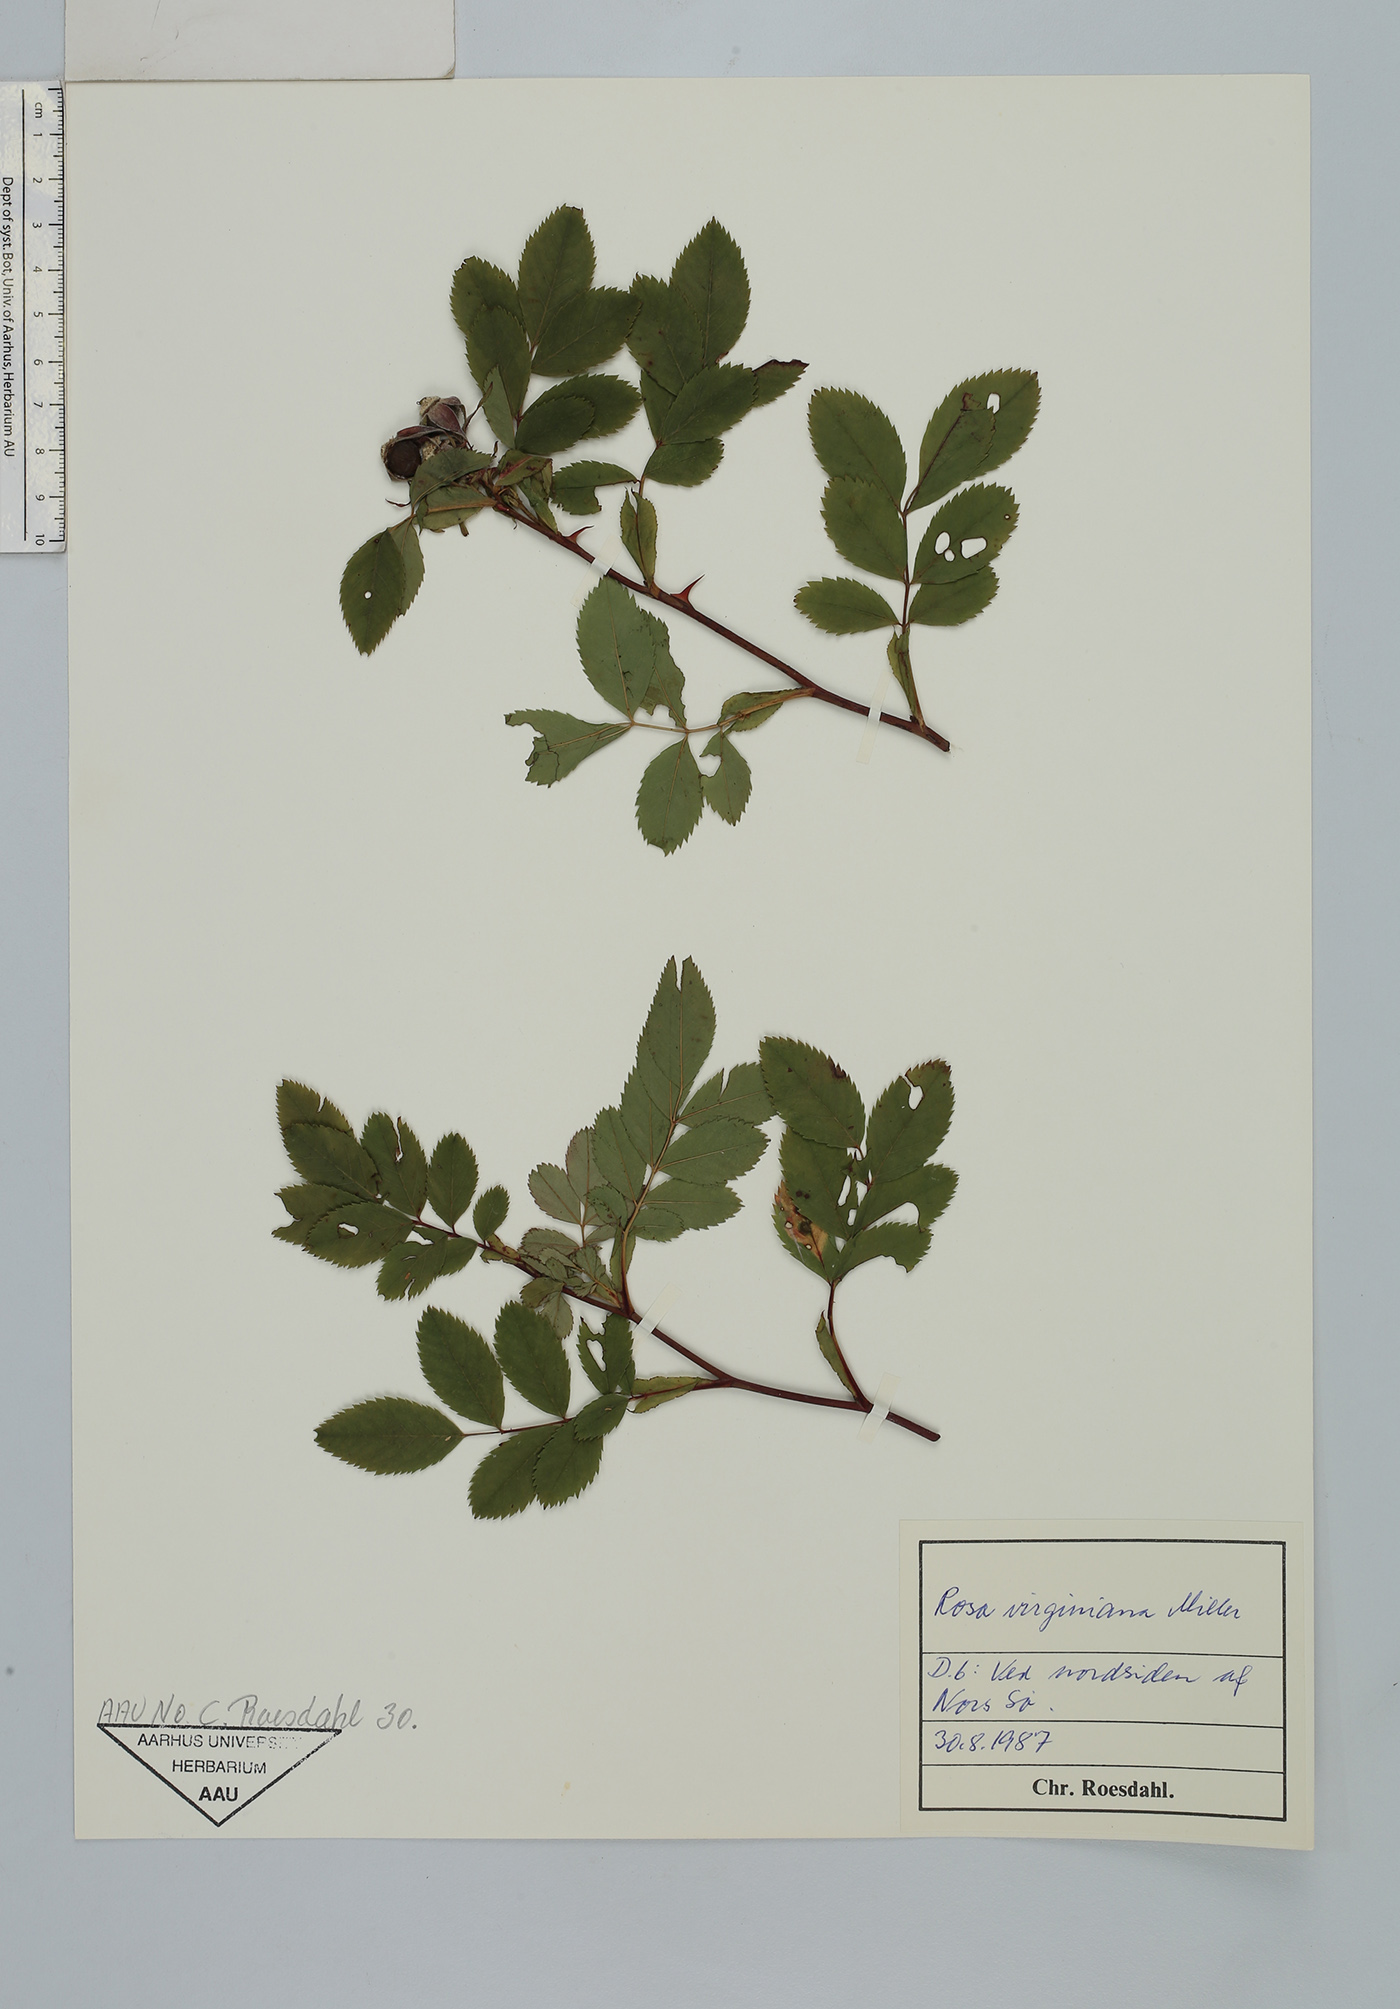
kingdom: Plantae
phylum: Tracheophyta
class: Magnoliopsida
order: Rosales
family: Rosaceae
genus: Rosa
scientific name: Rosa carolina
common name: Pasture rose
